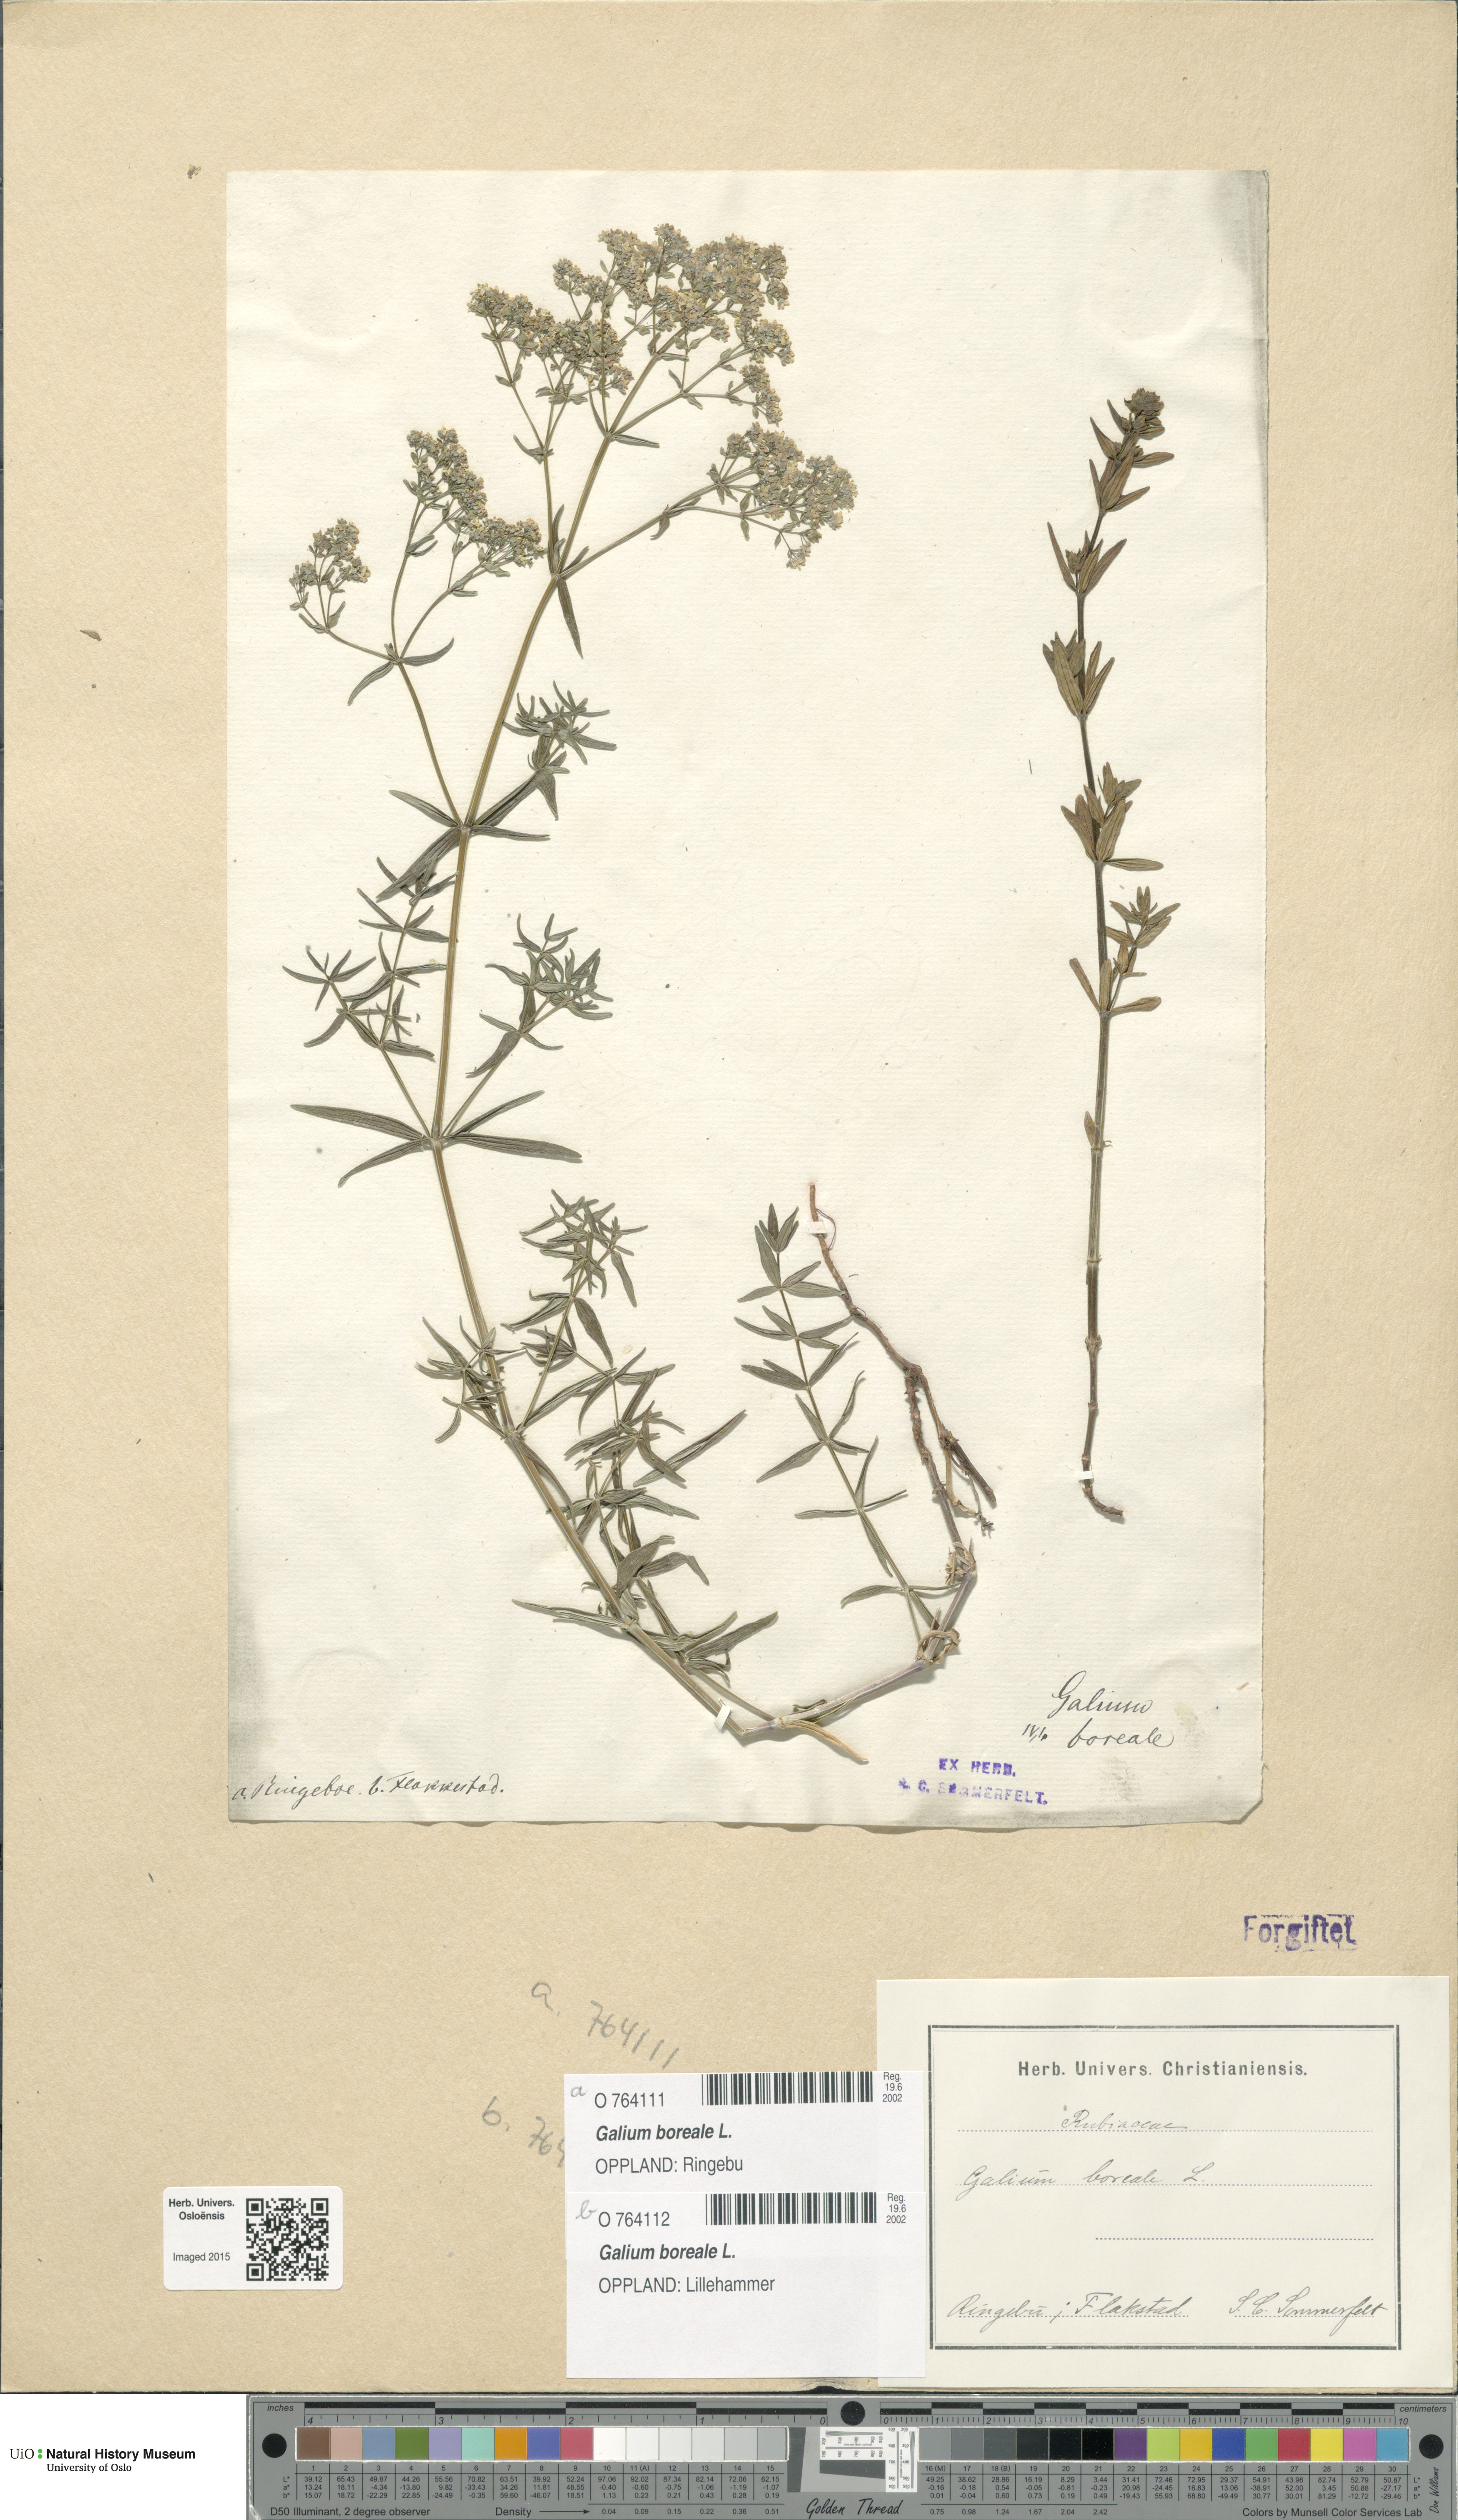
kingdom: Plantae
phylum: Tracheophyta
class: Magnoliopsida
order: Gentianales
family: Rubiaceae
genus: Galium
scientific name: Galium boreale
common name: Northern bedstraw
